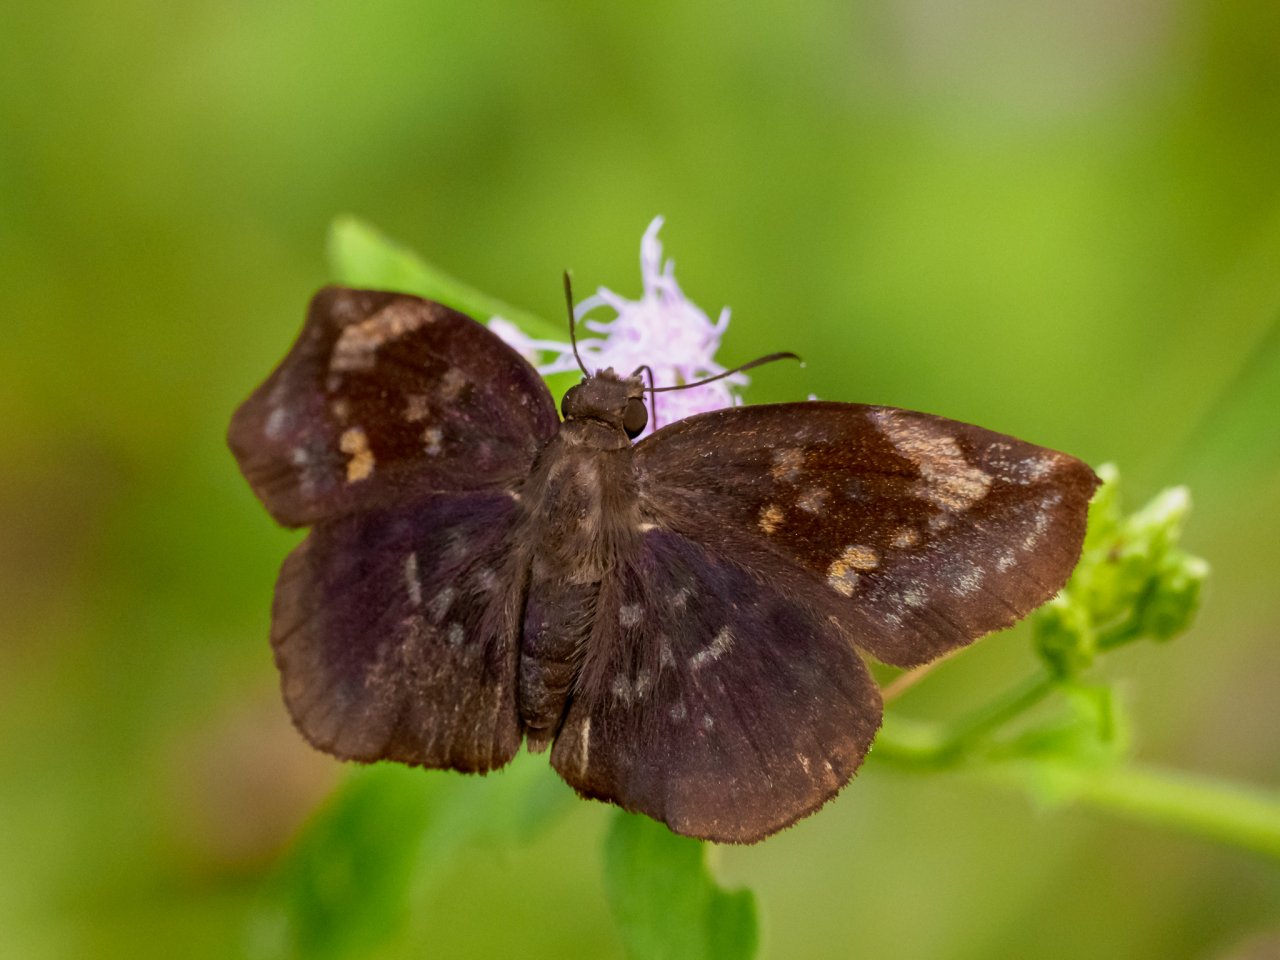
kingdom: Animalia
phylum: Arthropoda
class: Insecta
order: Lepidoptera
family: Hesperiidae
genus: Achlyodes
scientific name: Achlyodes thraso
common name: Sickle-winged Skipper
